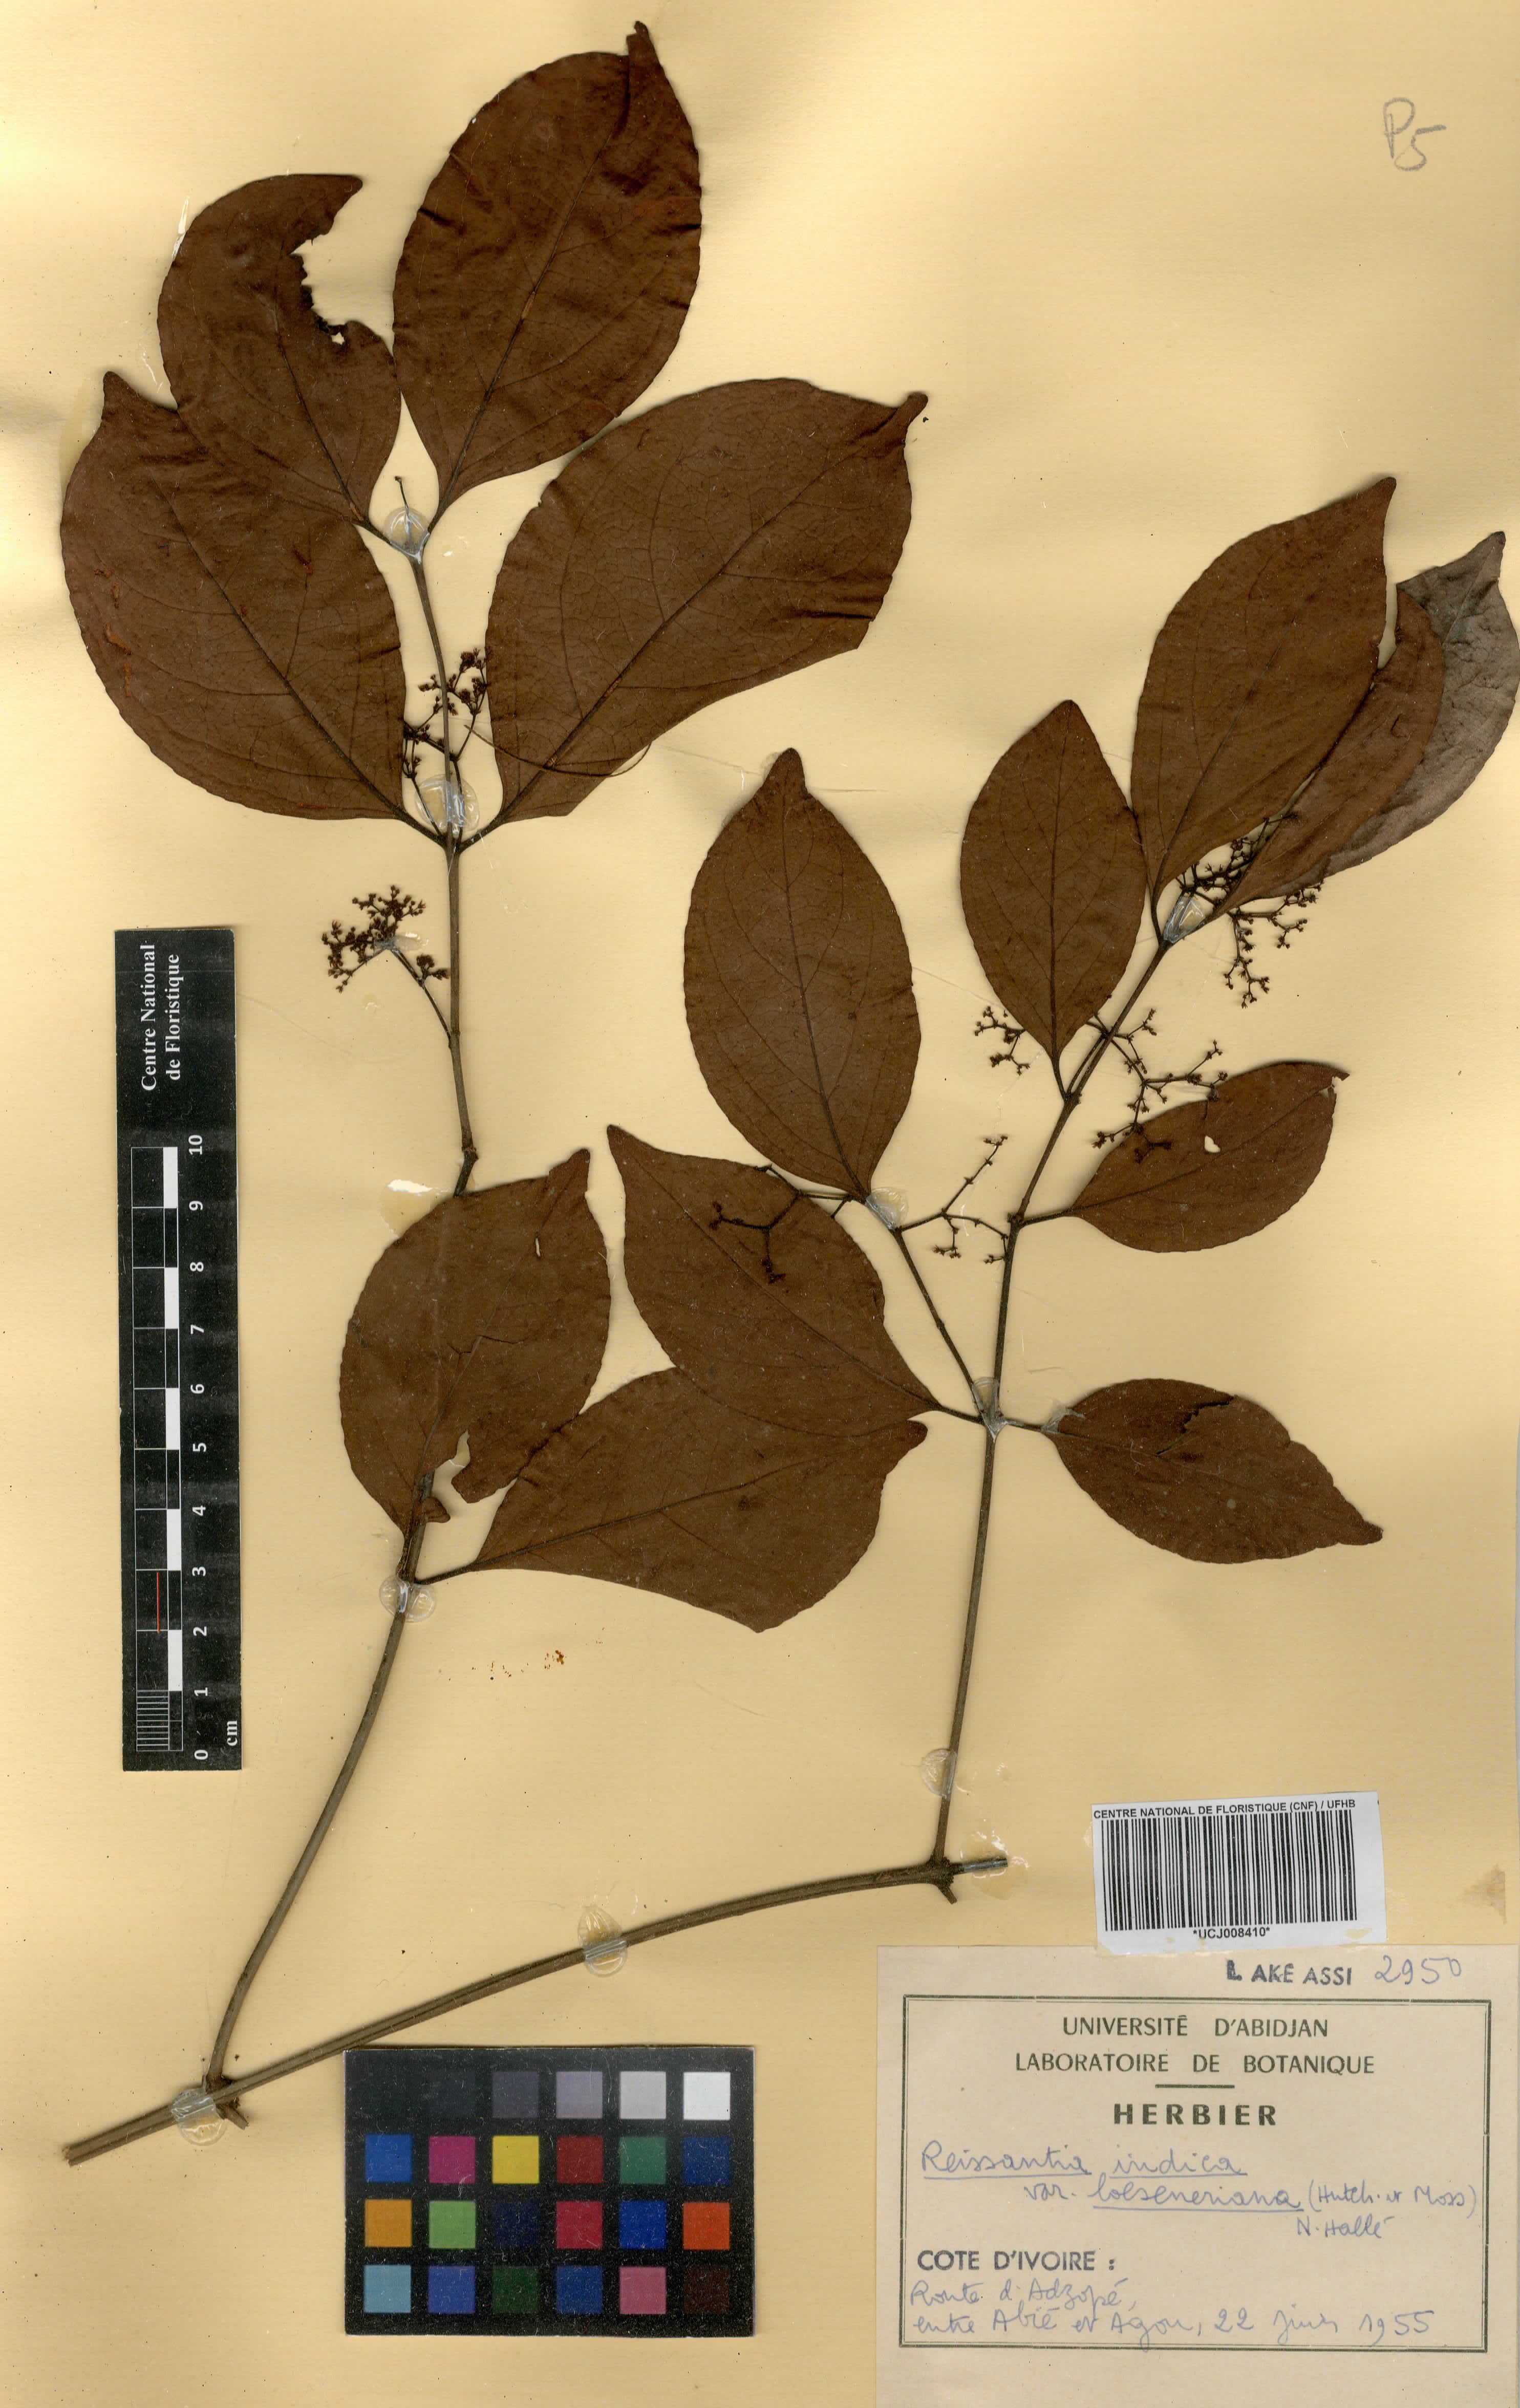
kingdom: Plantae
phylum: Tracheophyta
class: Magnoliopsida
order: Celastrales
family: Celastraceae
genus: Reissantia
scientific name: Reissantia indica
